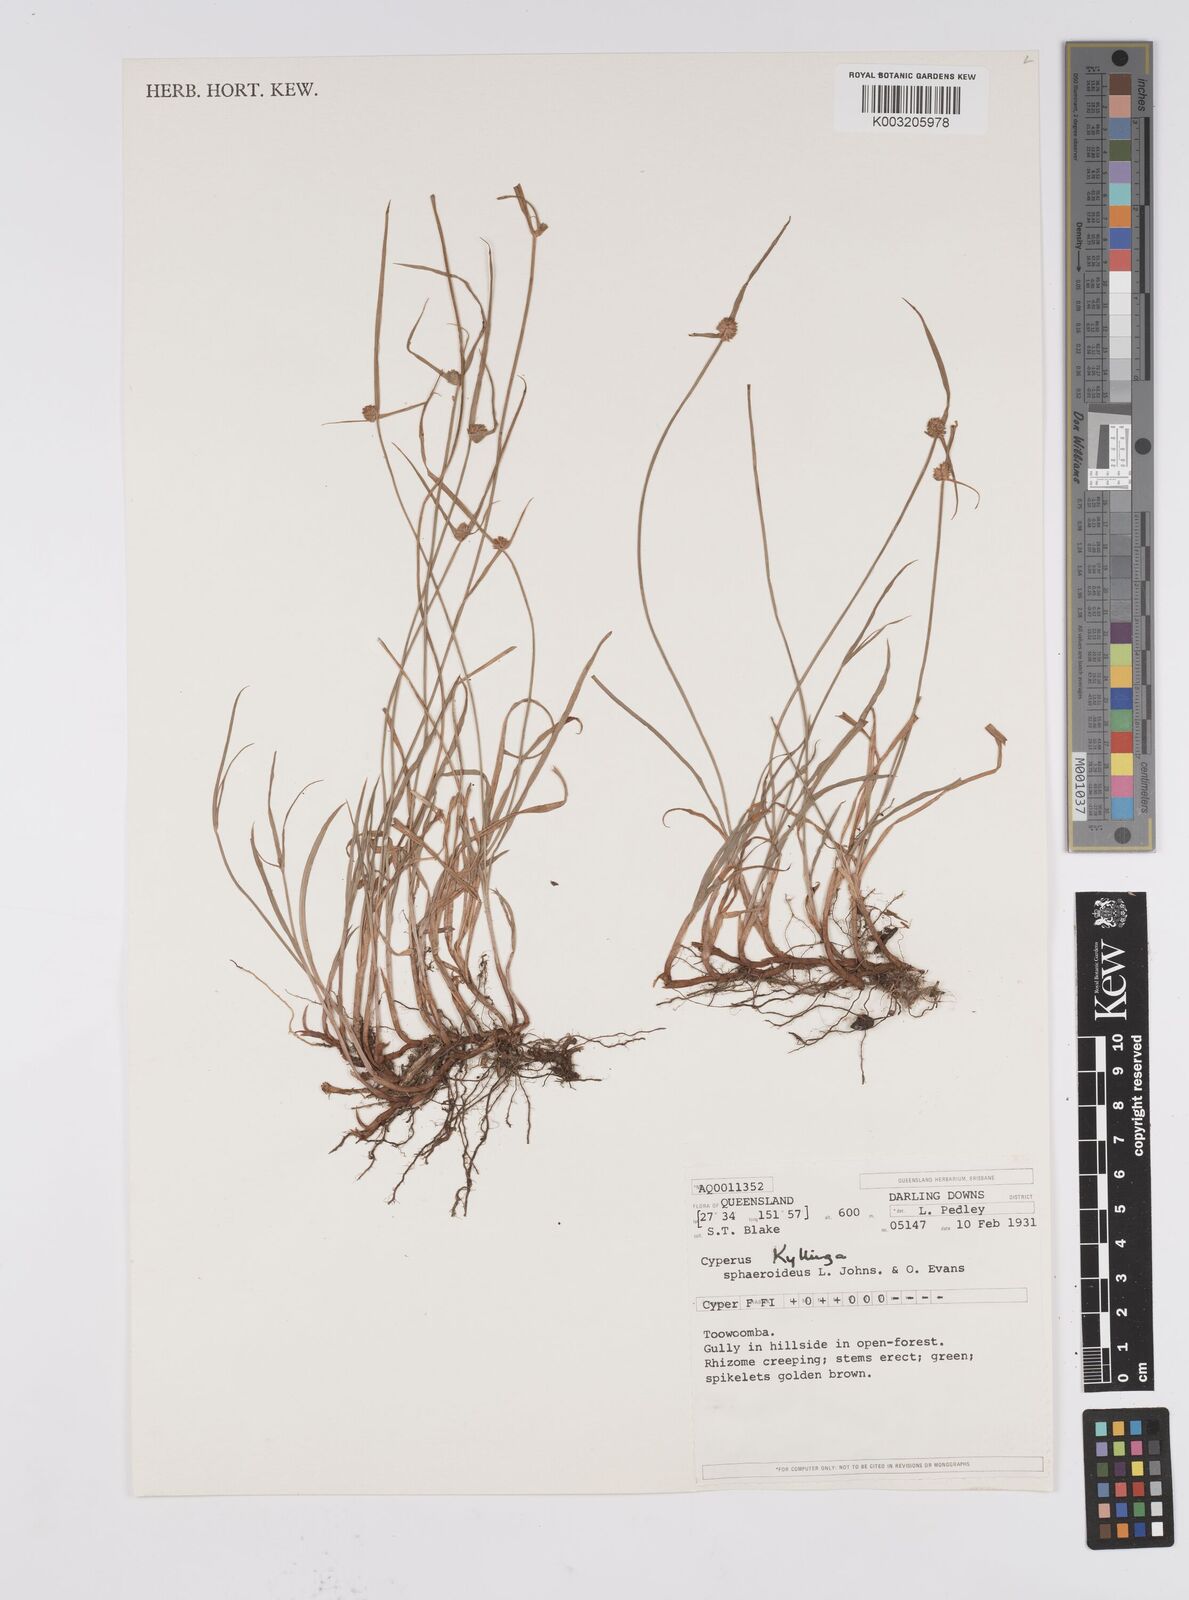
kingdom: Plantae
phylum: Tracheophyta
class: Liliopsida
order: Poales
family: Cyperaceae
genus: Cyperus
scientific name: Cyperus longus
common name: Galingale
